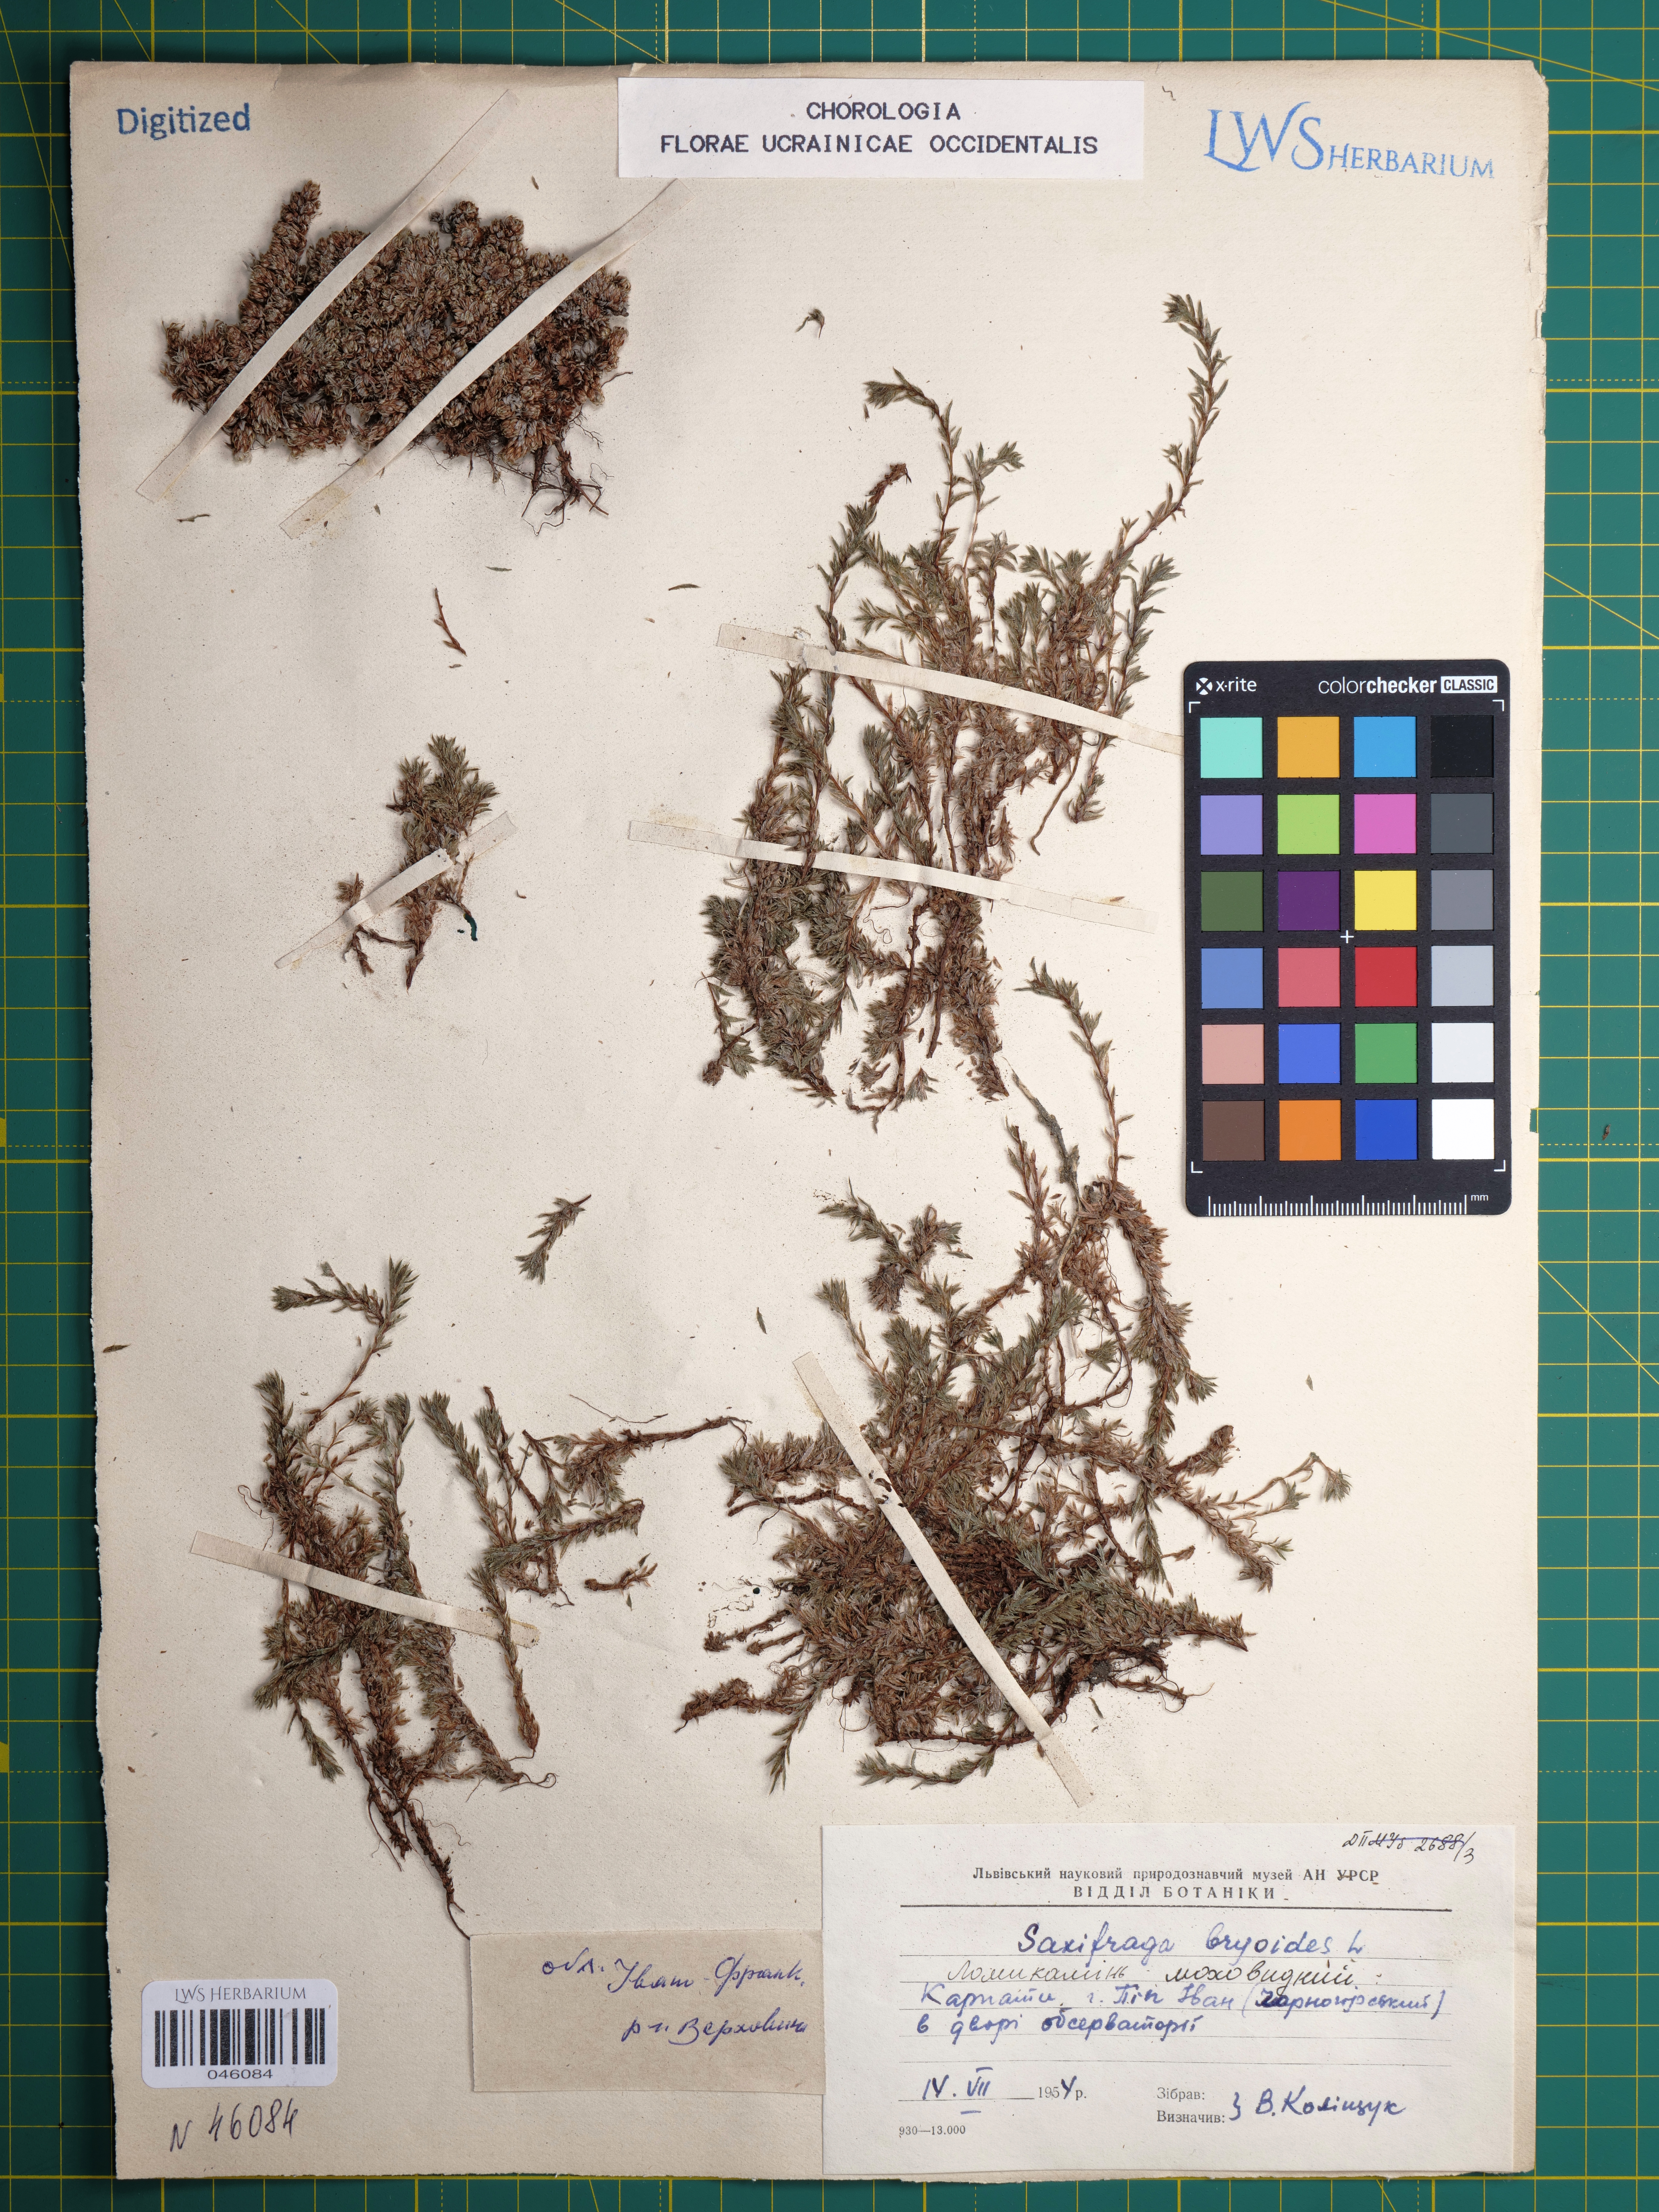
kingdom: Plantae
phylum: Tracheophyta
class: Magnoliopsida
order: Saxifragales
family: Saxifragaceae
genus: Saxifraga
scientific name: Saxifraga bryoides
